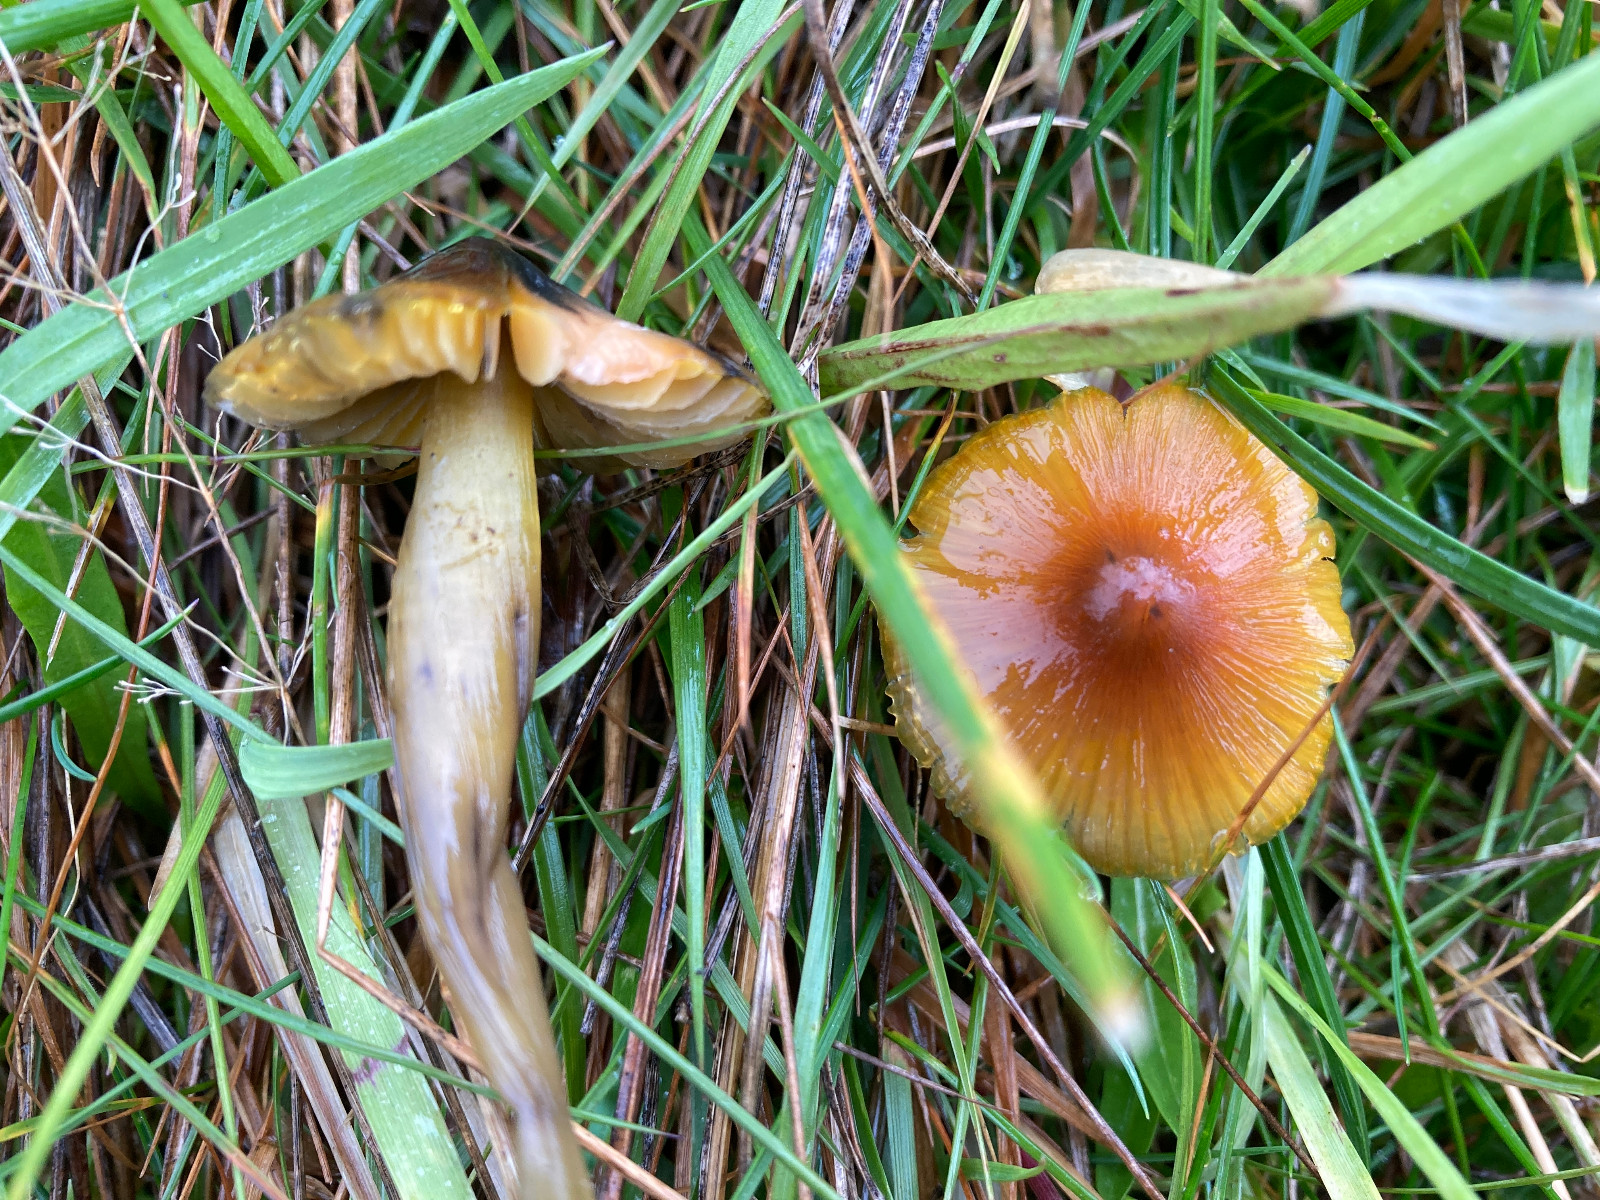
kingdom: Fungi
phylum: Basidiomycota
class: Agaricomycetes
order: Agaricales
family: Hygrophoraceae
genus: Hygrocybe
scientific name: Hygrocybe conica
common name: kegle-vokshat
